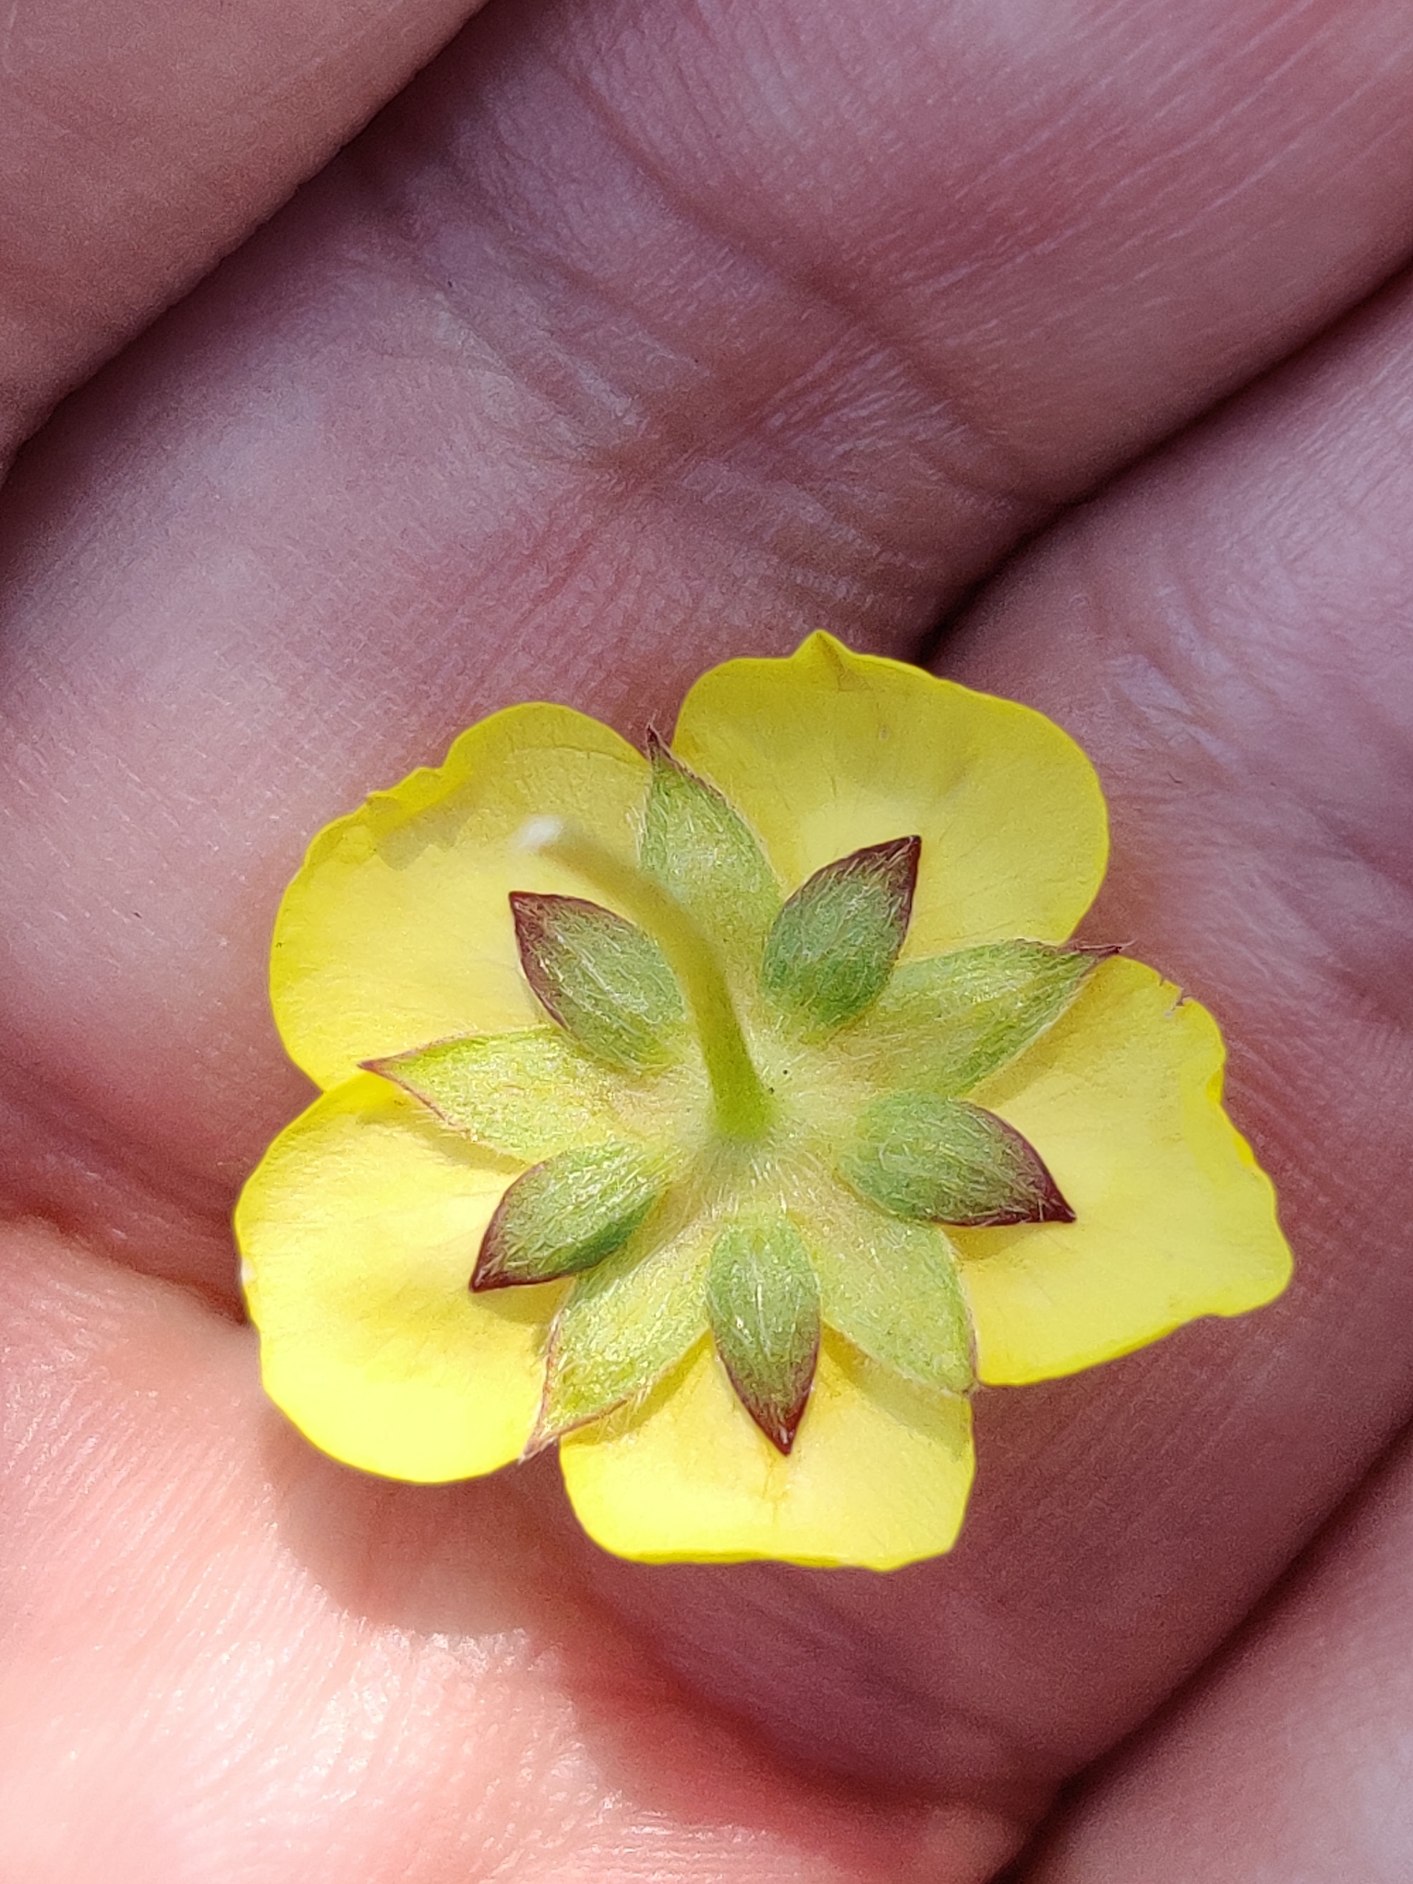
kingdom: Plantae
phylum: Tracheophyta
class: Magnoliopsida
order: Rosales
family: Rosaceae
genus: Potentilla
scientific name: Potentilla reptans
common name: Krybende potentil
